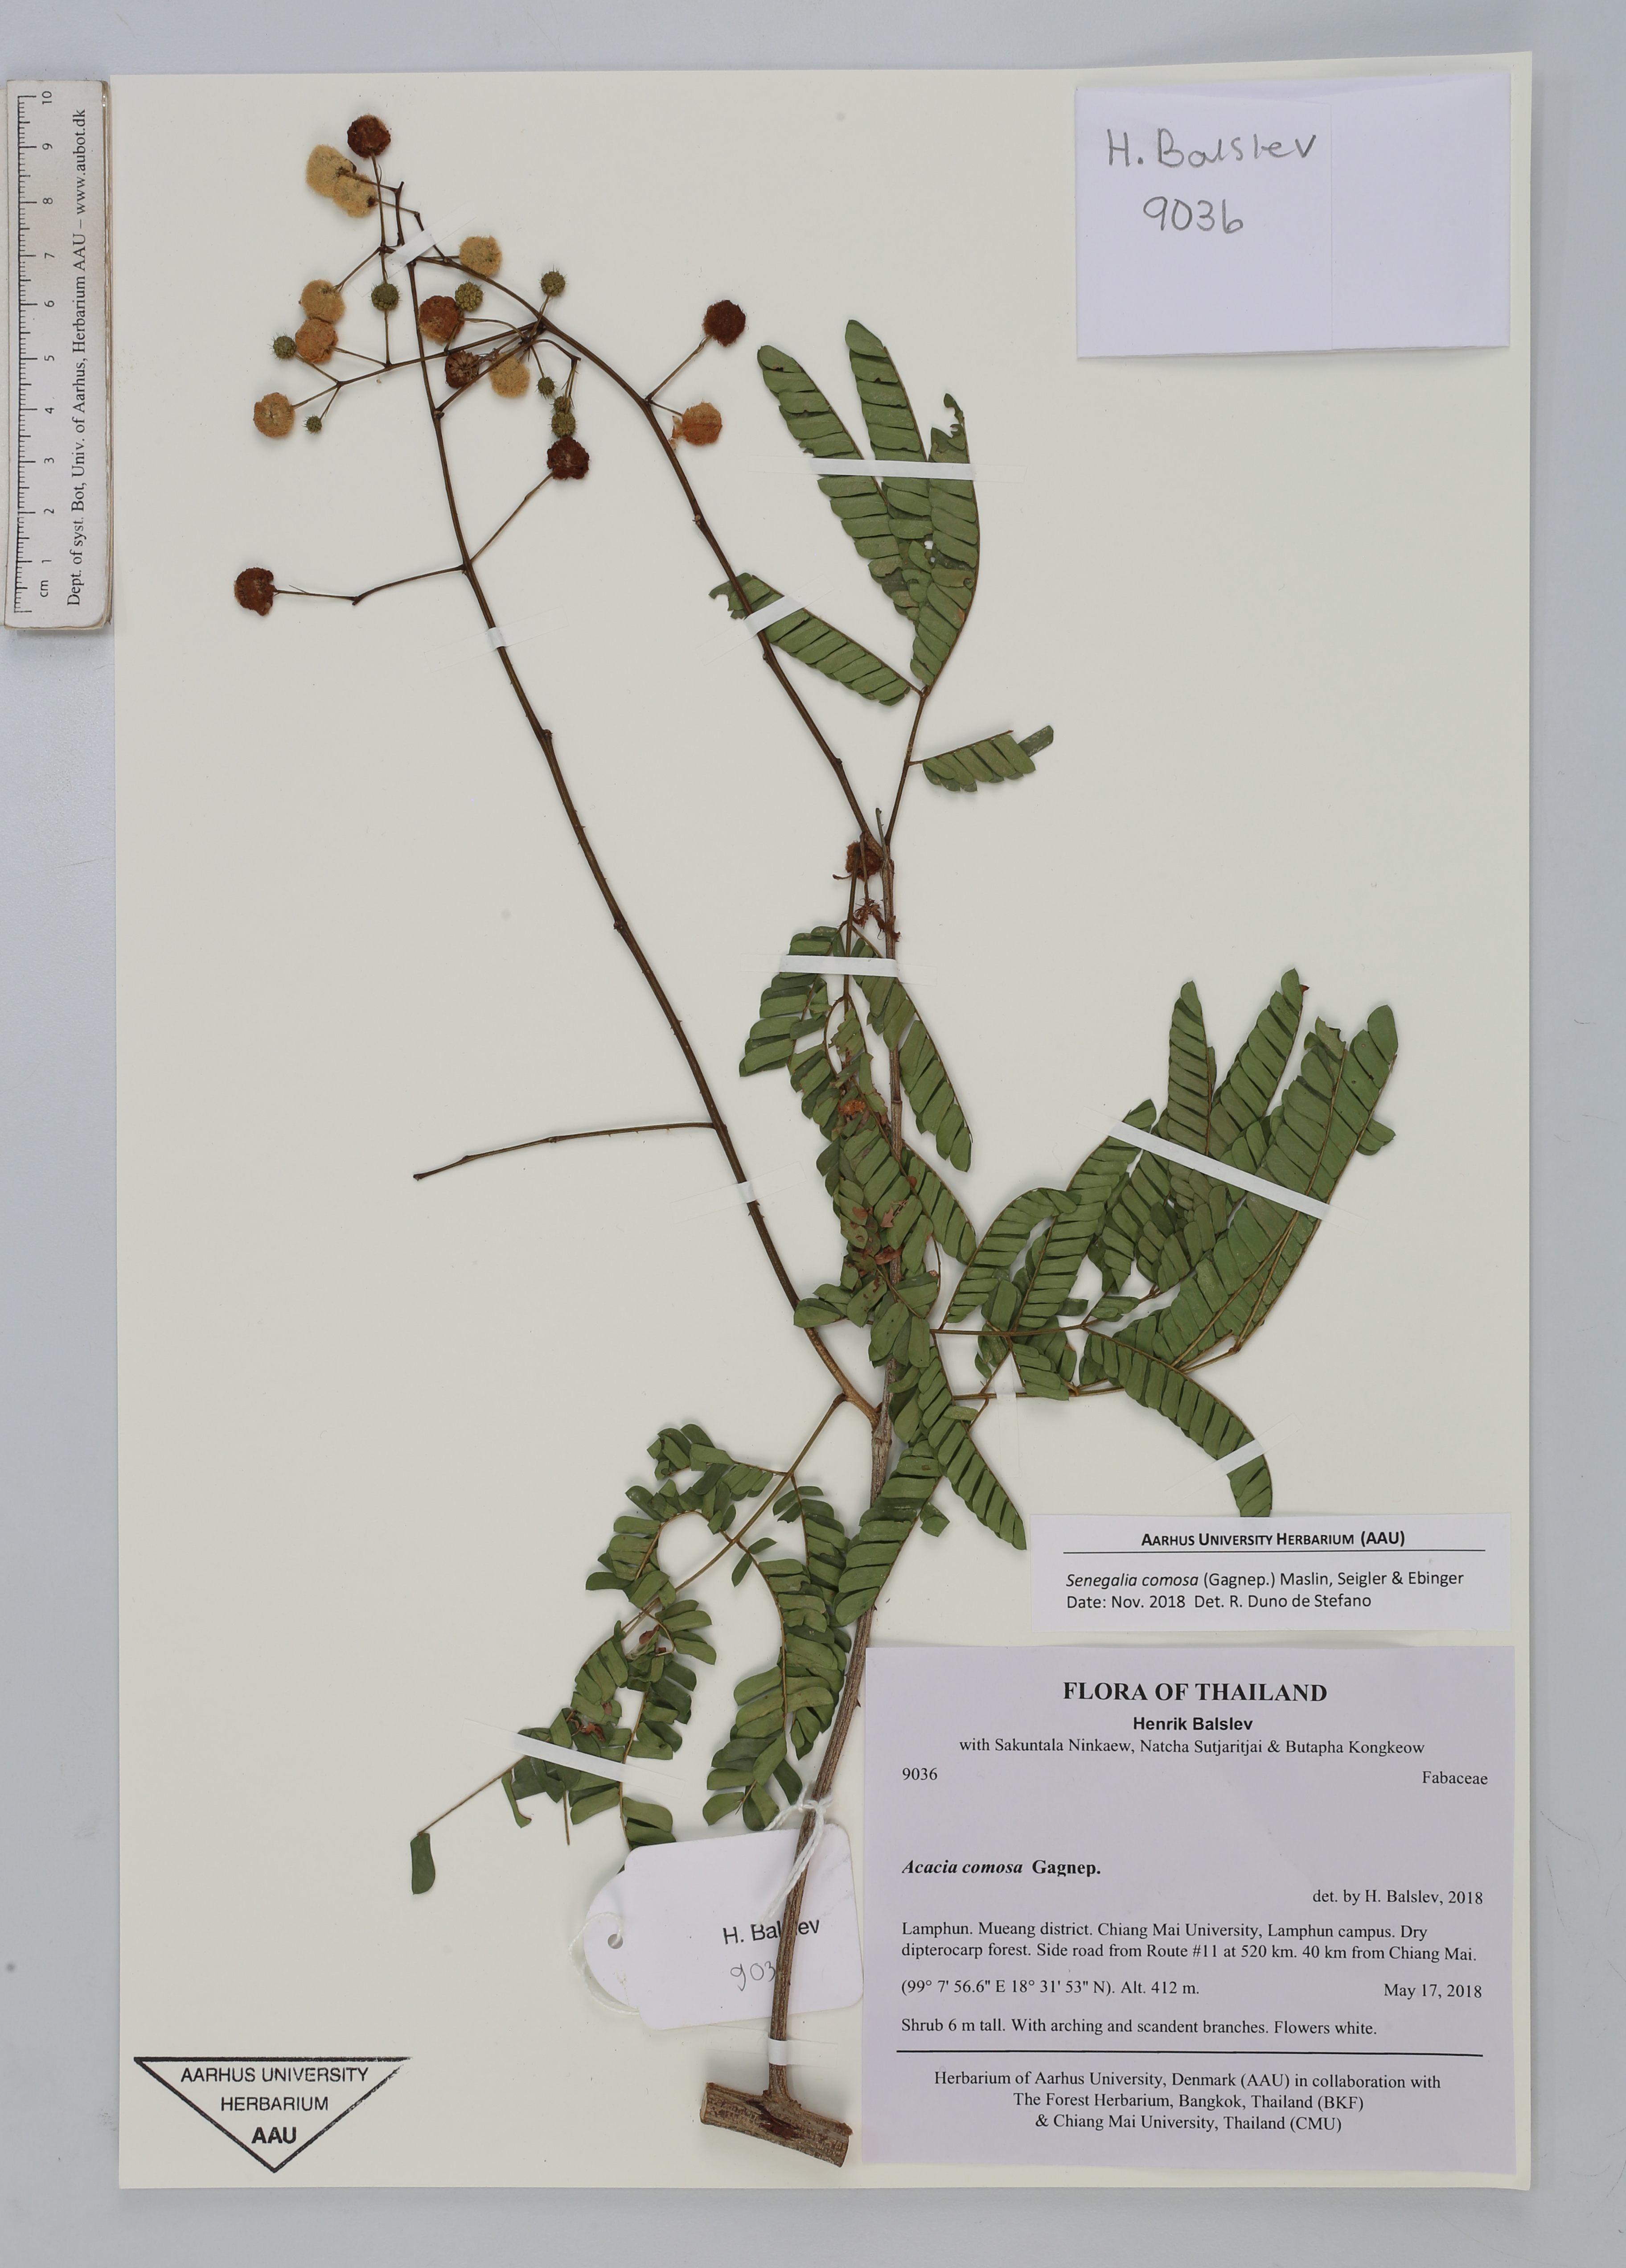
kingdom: Plantae
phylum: Tracheophyta
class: Magnoliopsida
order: Fabales
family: Fabaceae
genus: Senegalia
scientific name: Senegalia comosa
